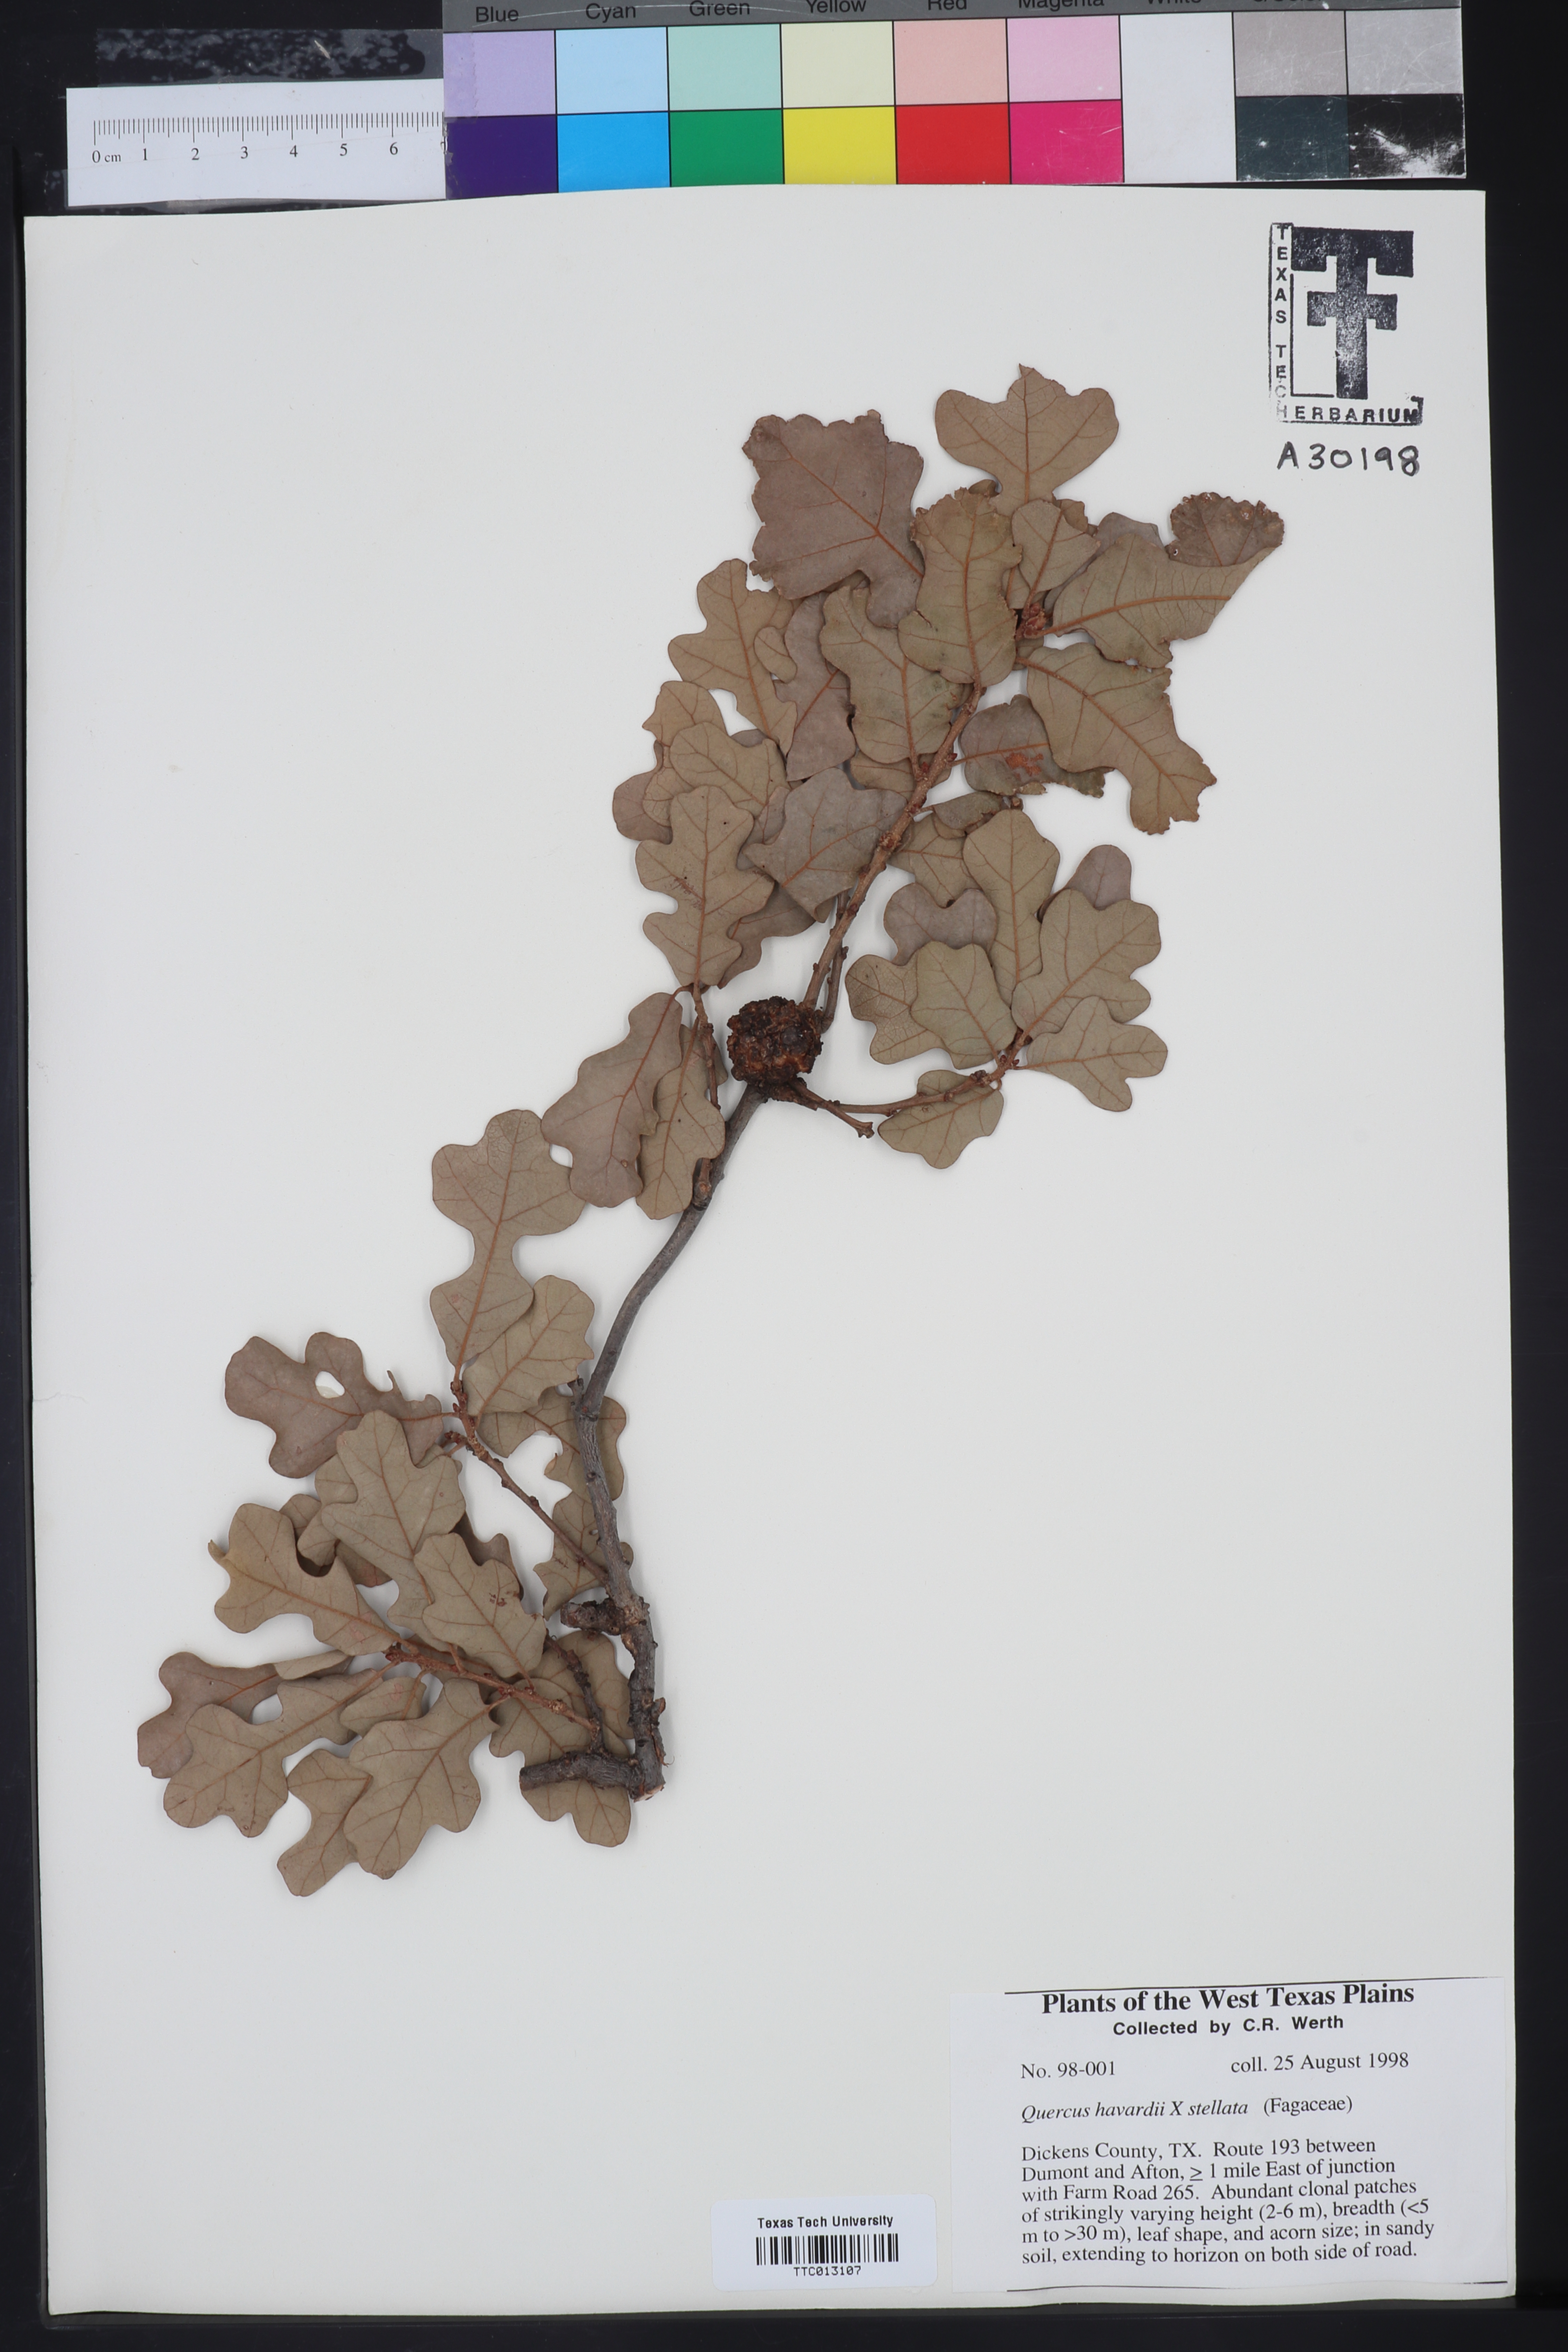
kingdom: Plantae
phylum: Tracheophyta
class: Magnoliopsida
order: Fagales
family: Fagaceae
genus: Quercus
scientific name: Quercus havardii
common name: Shinnery oak
